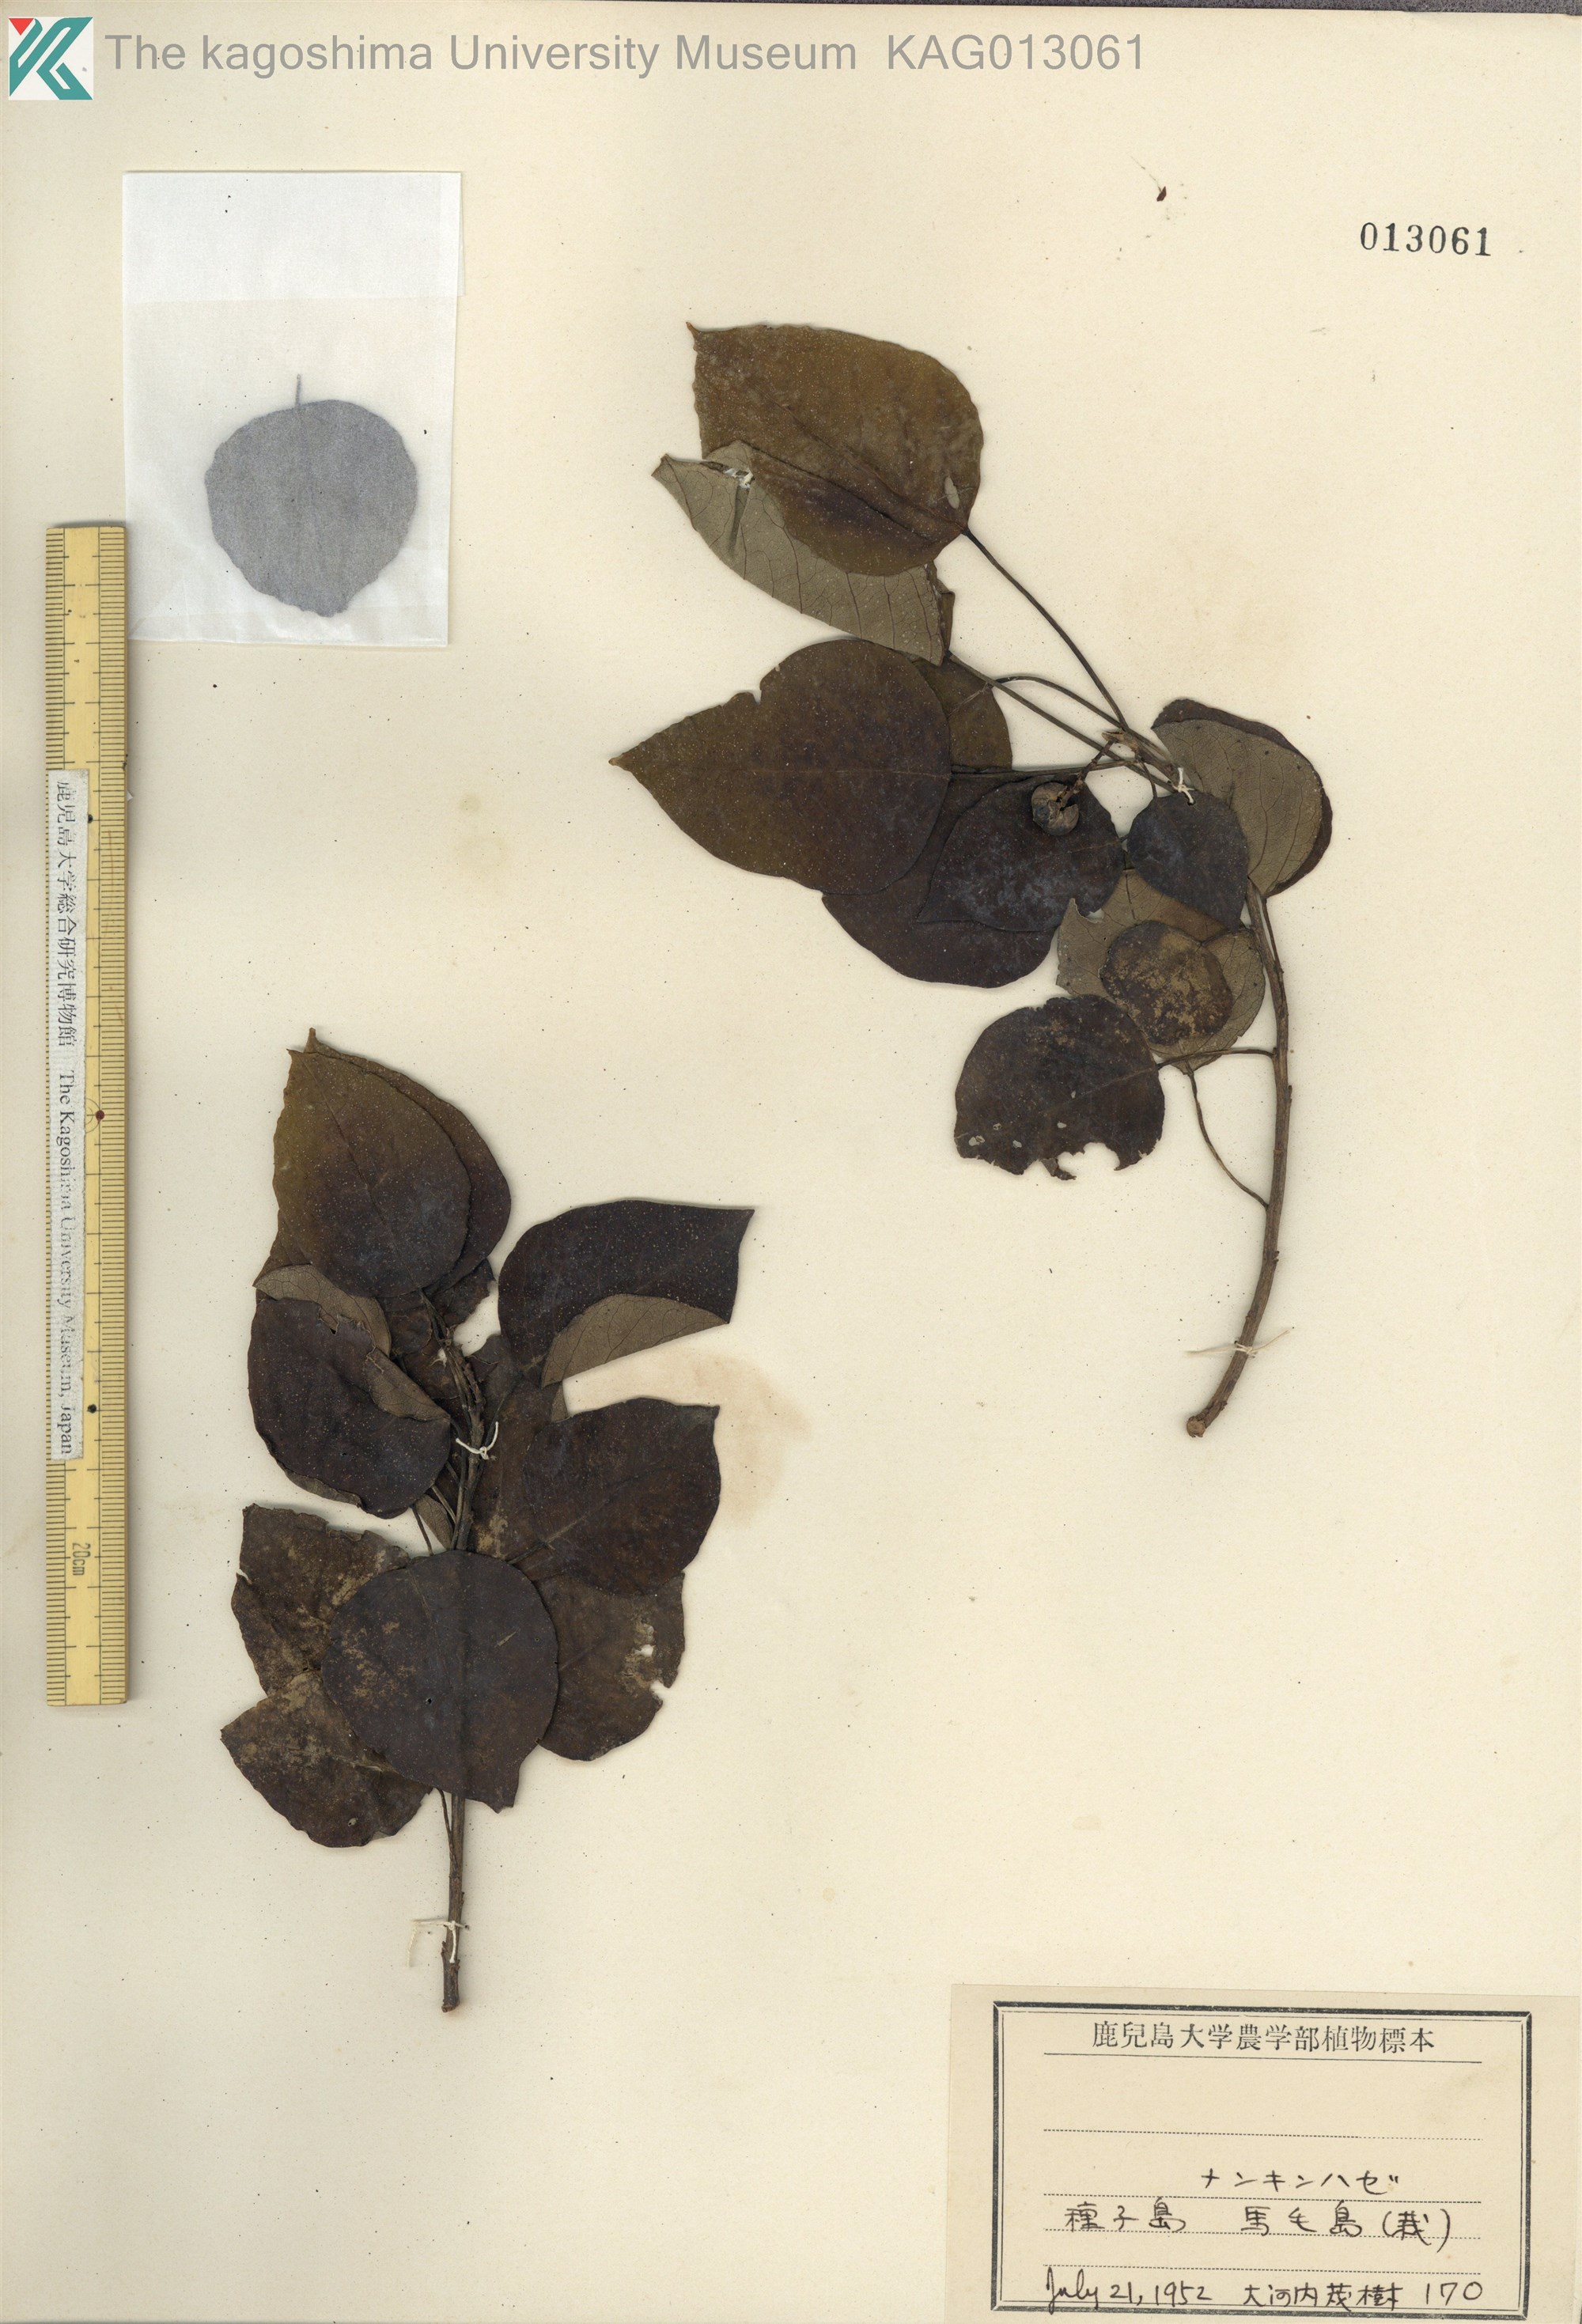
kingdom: Plantae
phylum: Tracheophyta
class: Magnoliopsida
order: Malpighiales
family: Euphorbiaceae
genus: Triadica
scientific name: Triadica sebifera
